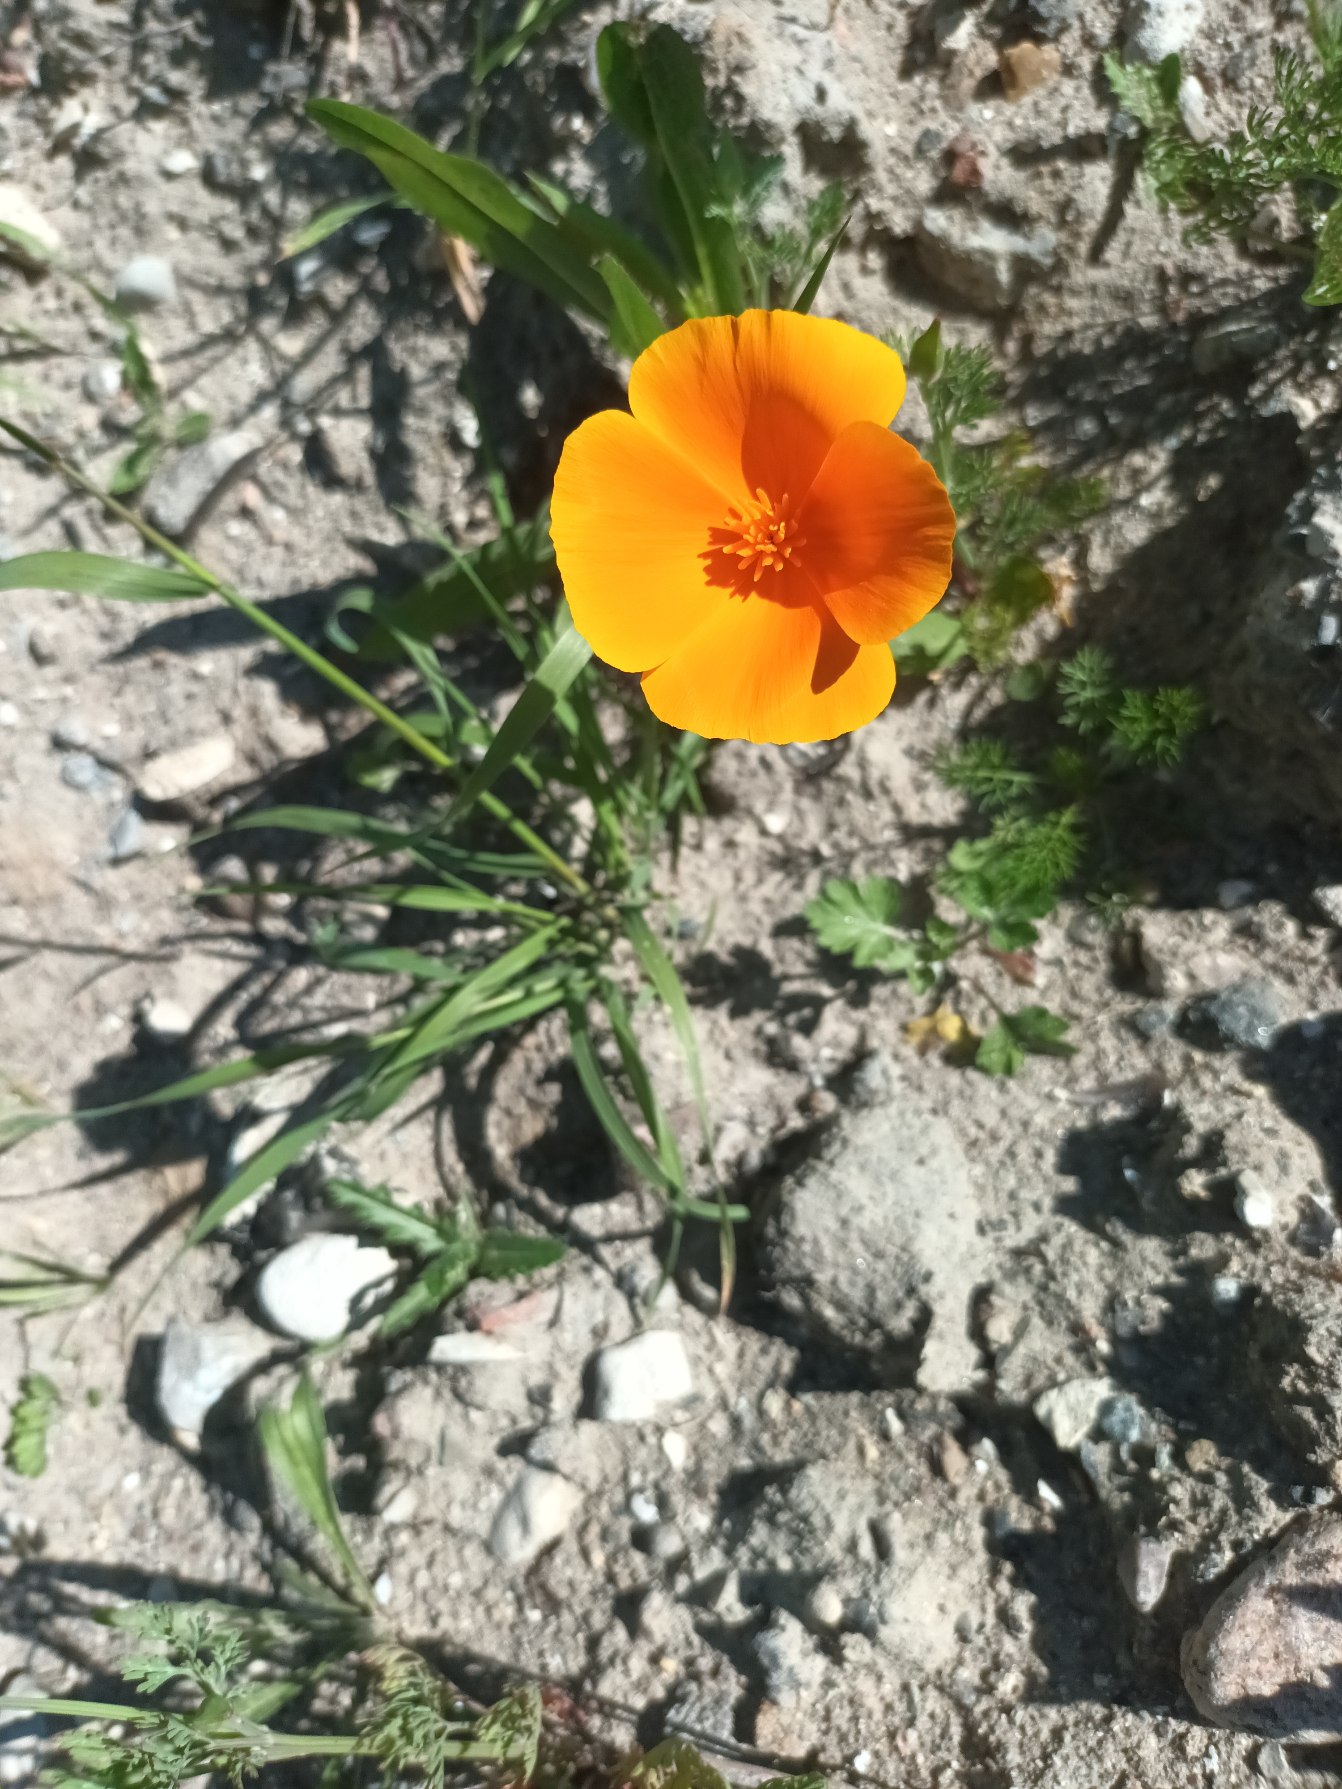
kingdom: Plantae
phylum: Tracheophyta
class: Magnoliopsida
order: Ranunculales
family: Papaveraceae
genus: Eschscholzia
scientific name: Eschscholzia californica
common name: Guldvalmue
